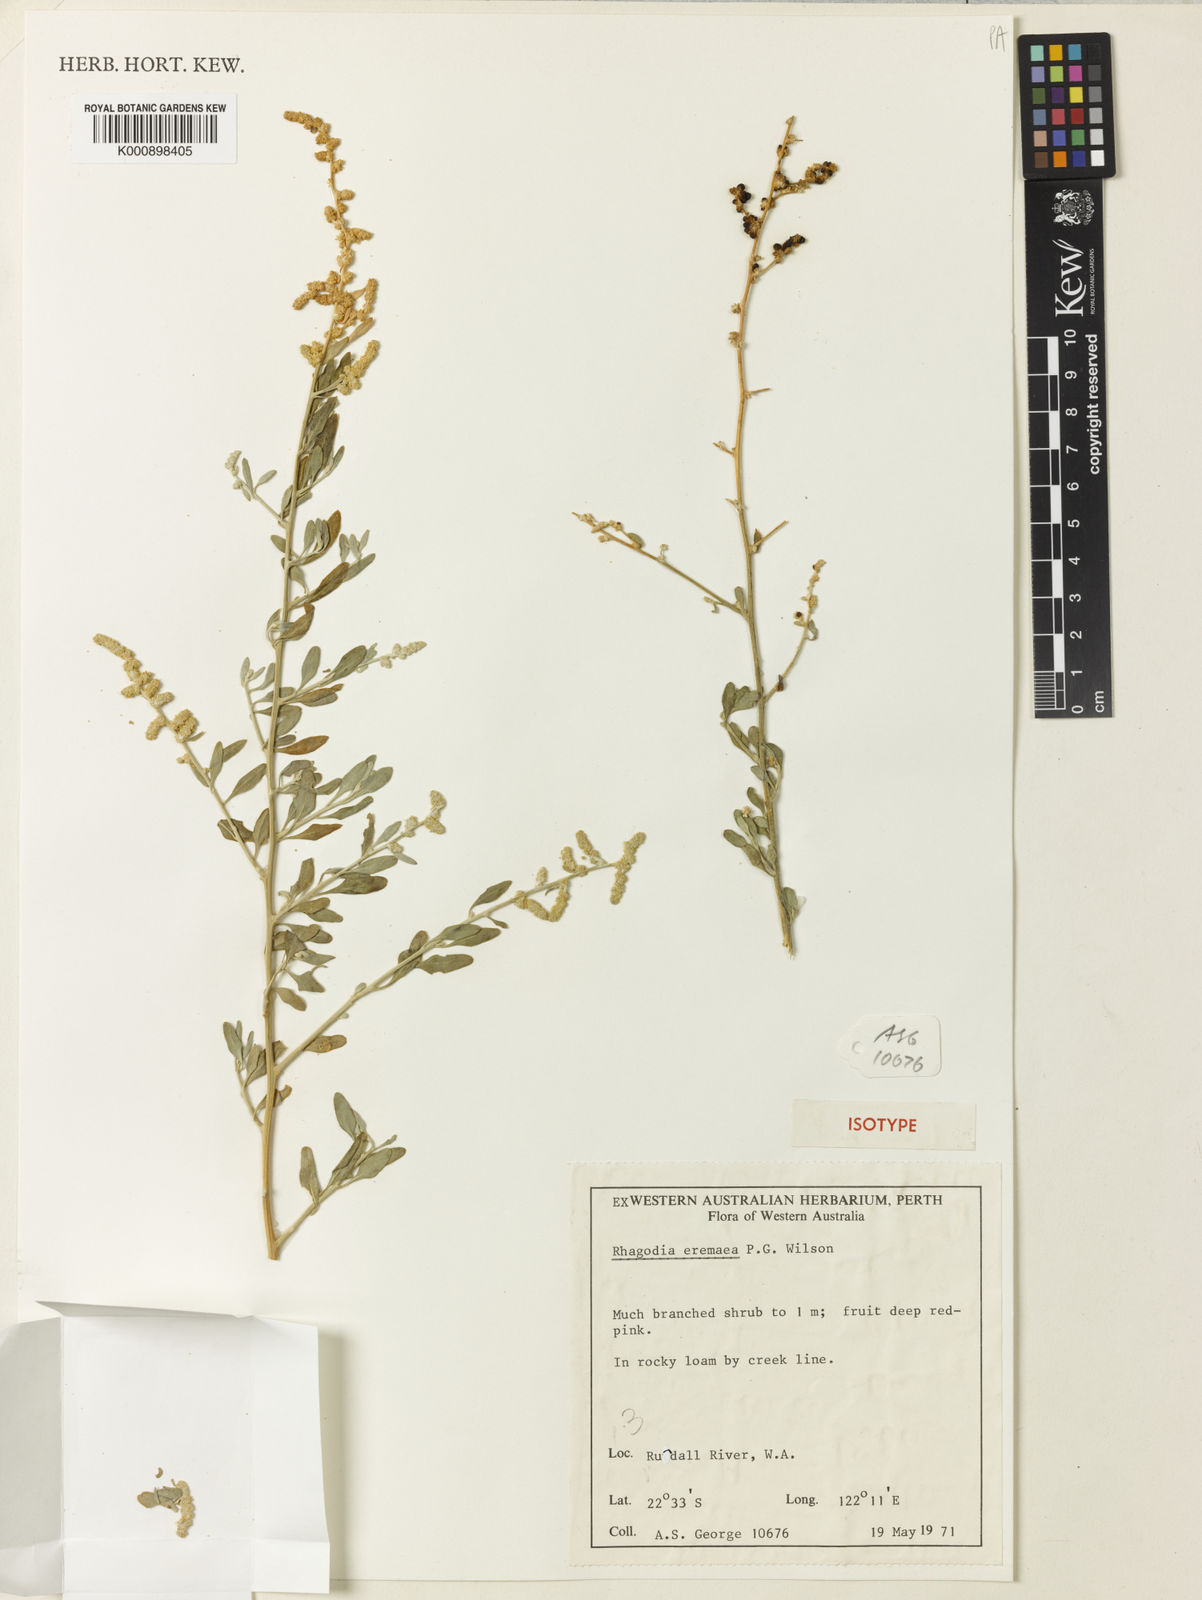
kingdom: Plantae
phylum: Tracheophyta
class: Magnoliopsida
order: Caryophyllales
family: Amaranthaceae
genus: Chenopodium
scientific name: Chenopodium eremaeum
